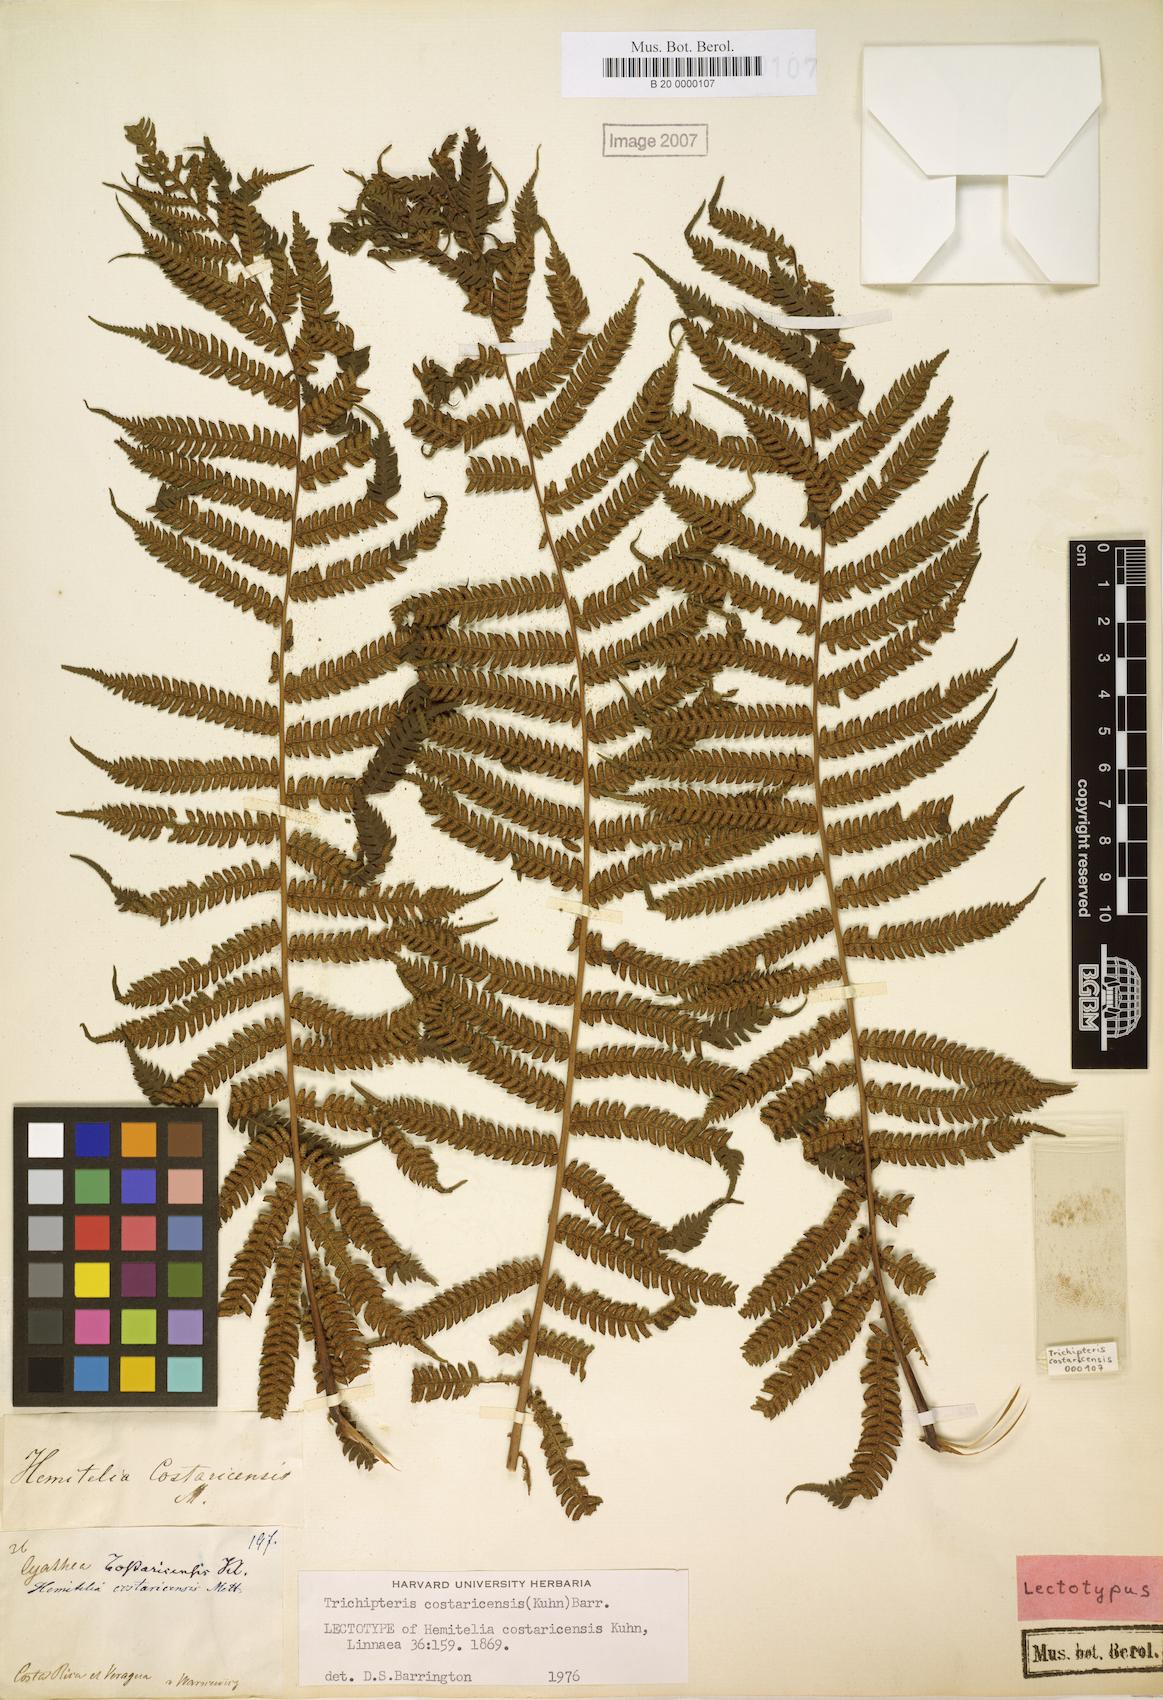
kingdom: Plantae
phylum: Tracheophyta
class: Polypodiopsida
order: Cyatheales
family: Cyatheaceae
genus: Cyathea
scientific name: Cyathea costaricensis
